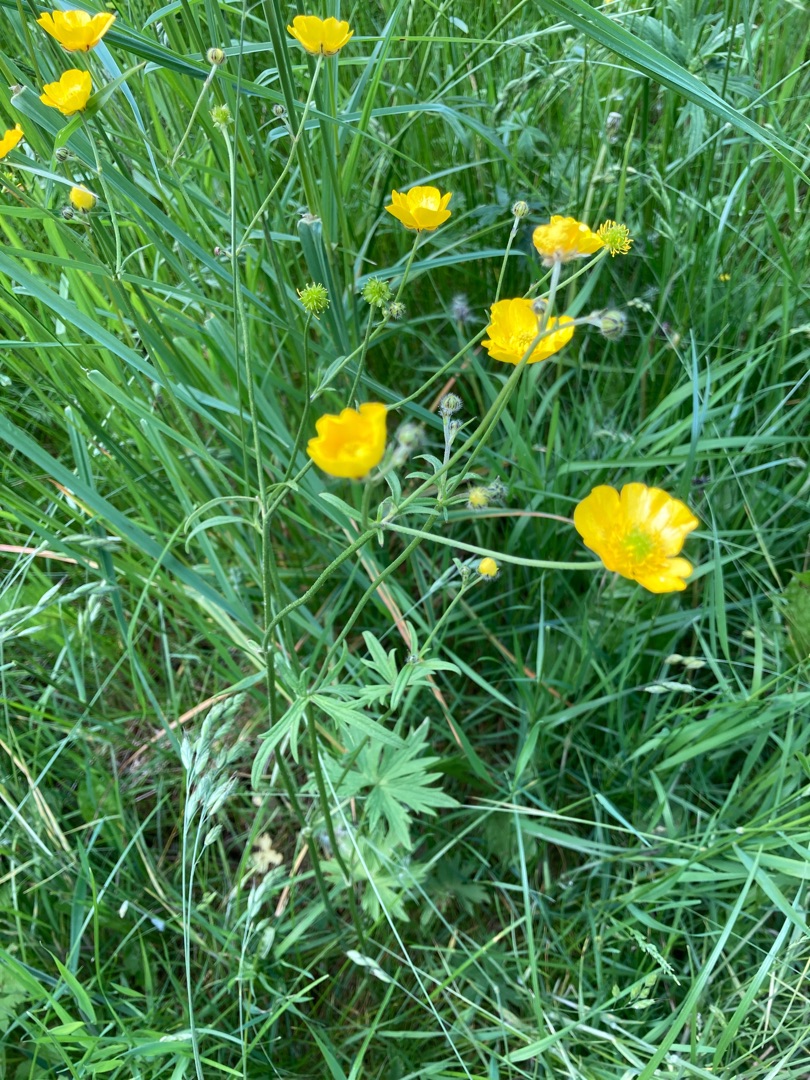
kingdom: Plantae
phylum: Tracheophyta
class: Magnoliopsida
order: Ranunculales
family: Ranunculaceae
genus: Ranunculus
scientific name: Ranunculus acris
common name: Bidende ranunkel
